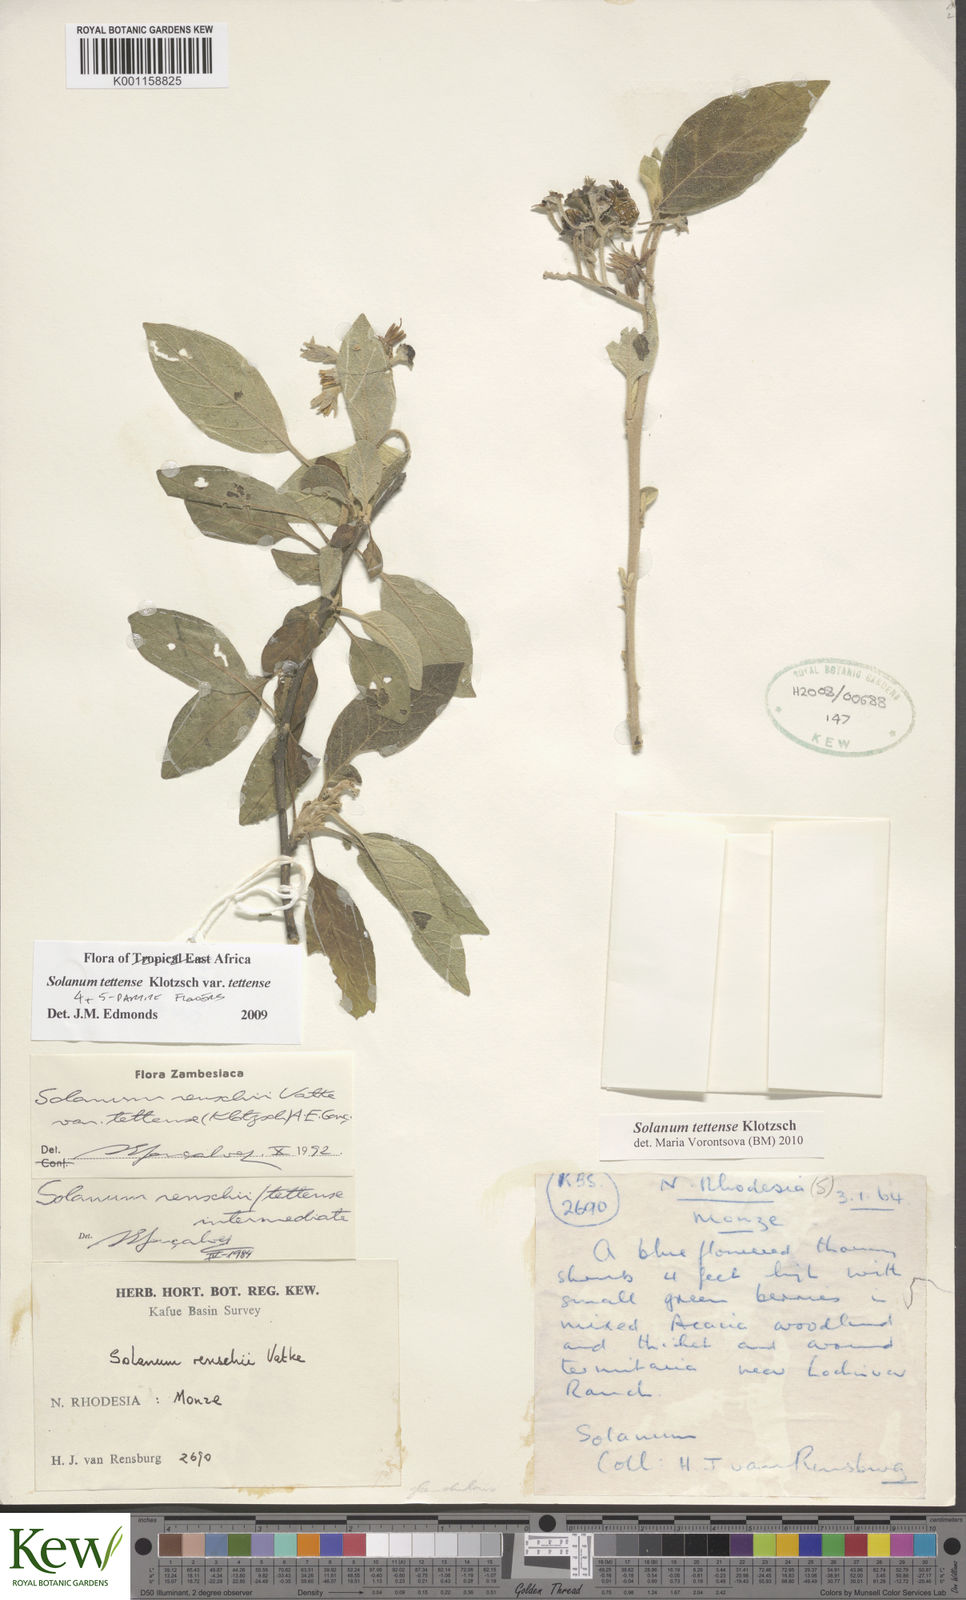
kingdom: Plantae
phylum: Tracheophyta
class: Magnoliopsida
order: Solanales
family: Solanaceae
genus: Solanum
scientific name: Solanum tettense
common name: Mozambique bitter apple
